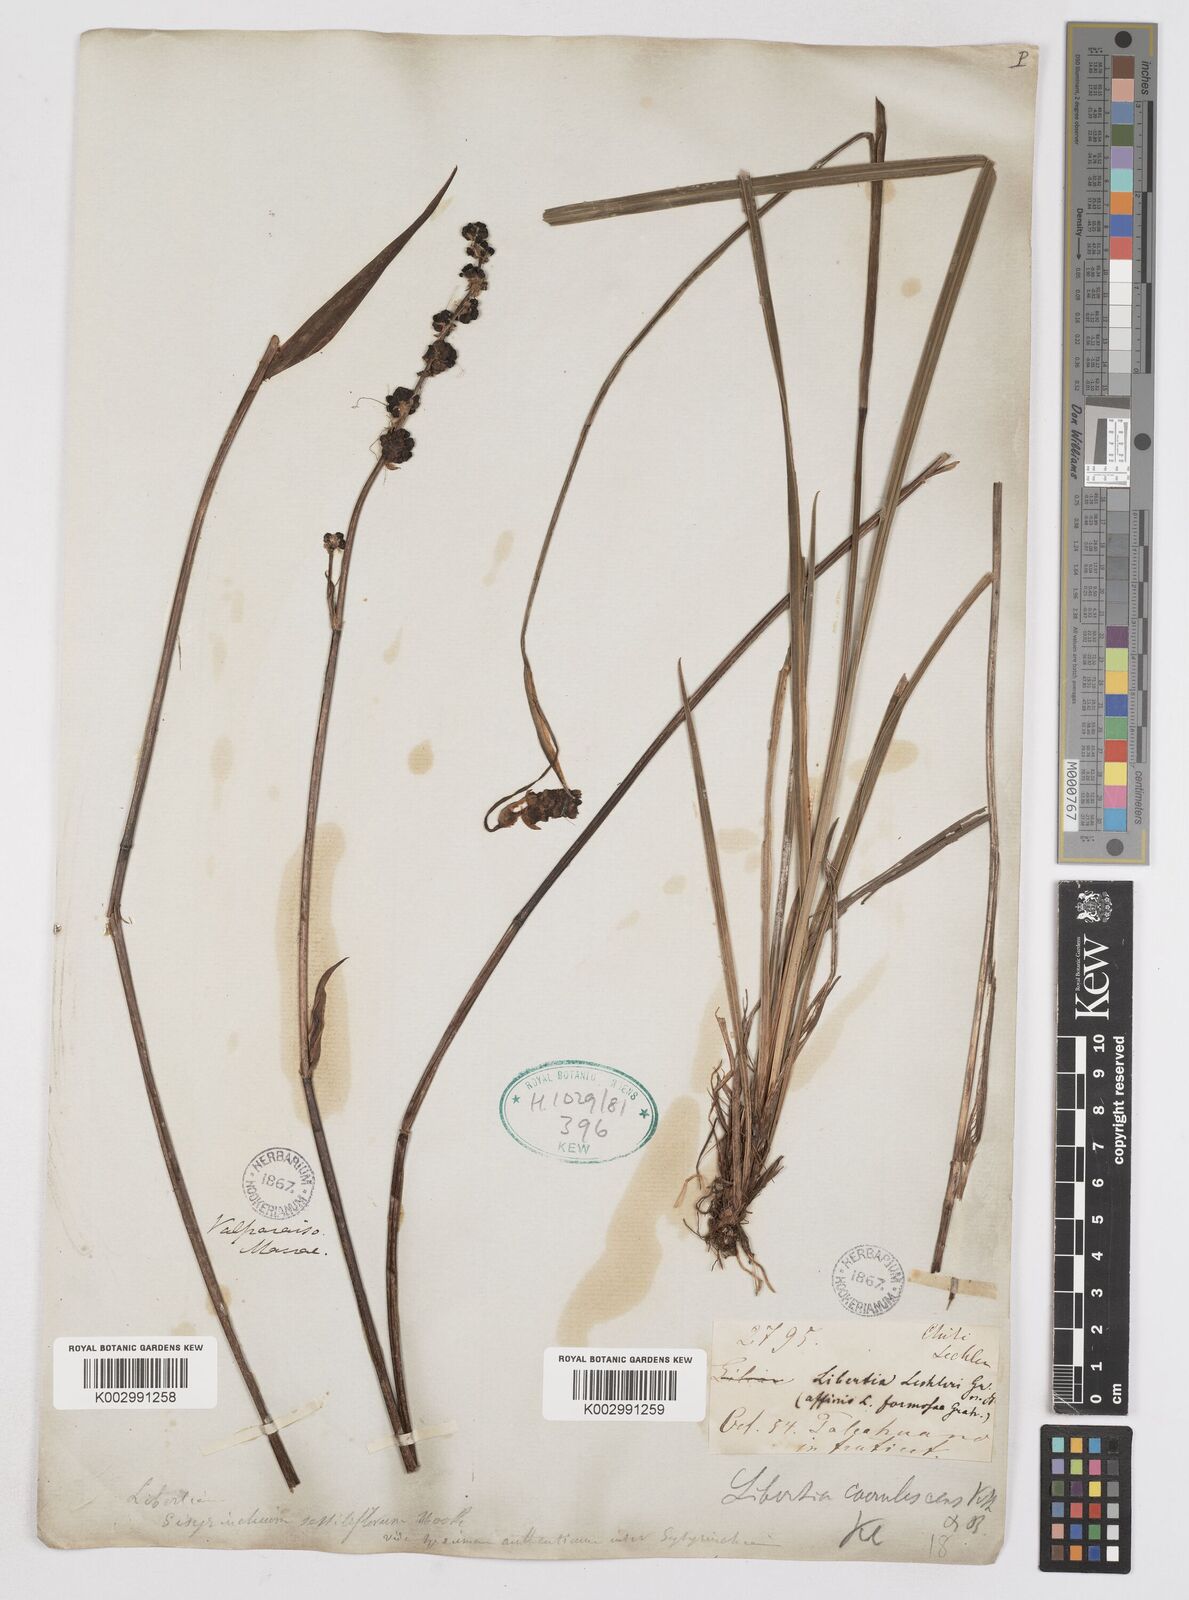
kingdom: Plantae
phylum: Tracheophyta
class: Liliopsida
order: Asparagales
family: Iridaceae
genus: Libertia
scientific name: Libertia sessiliflora
